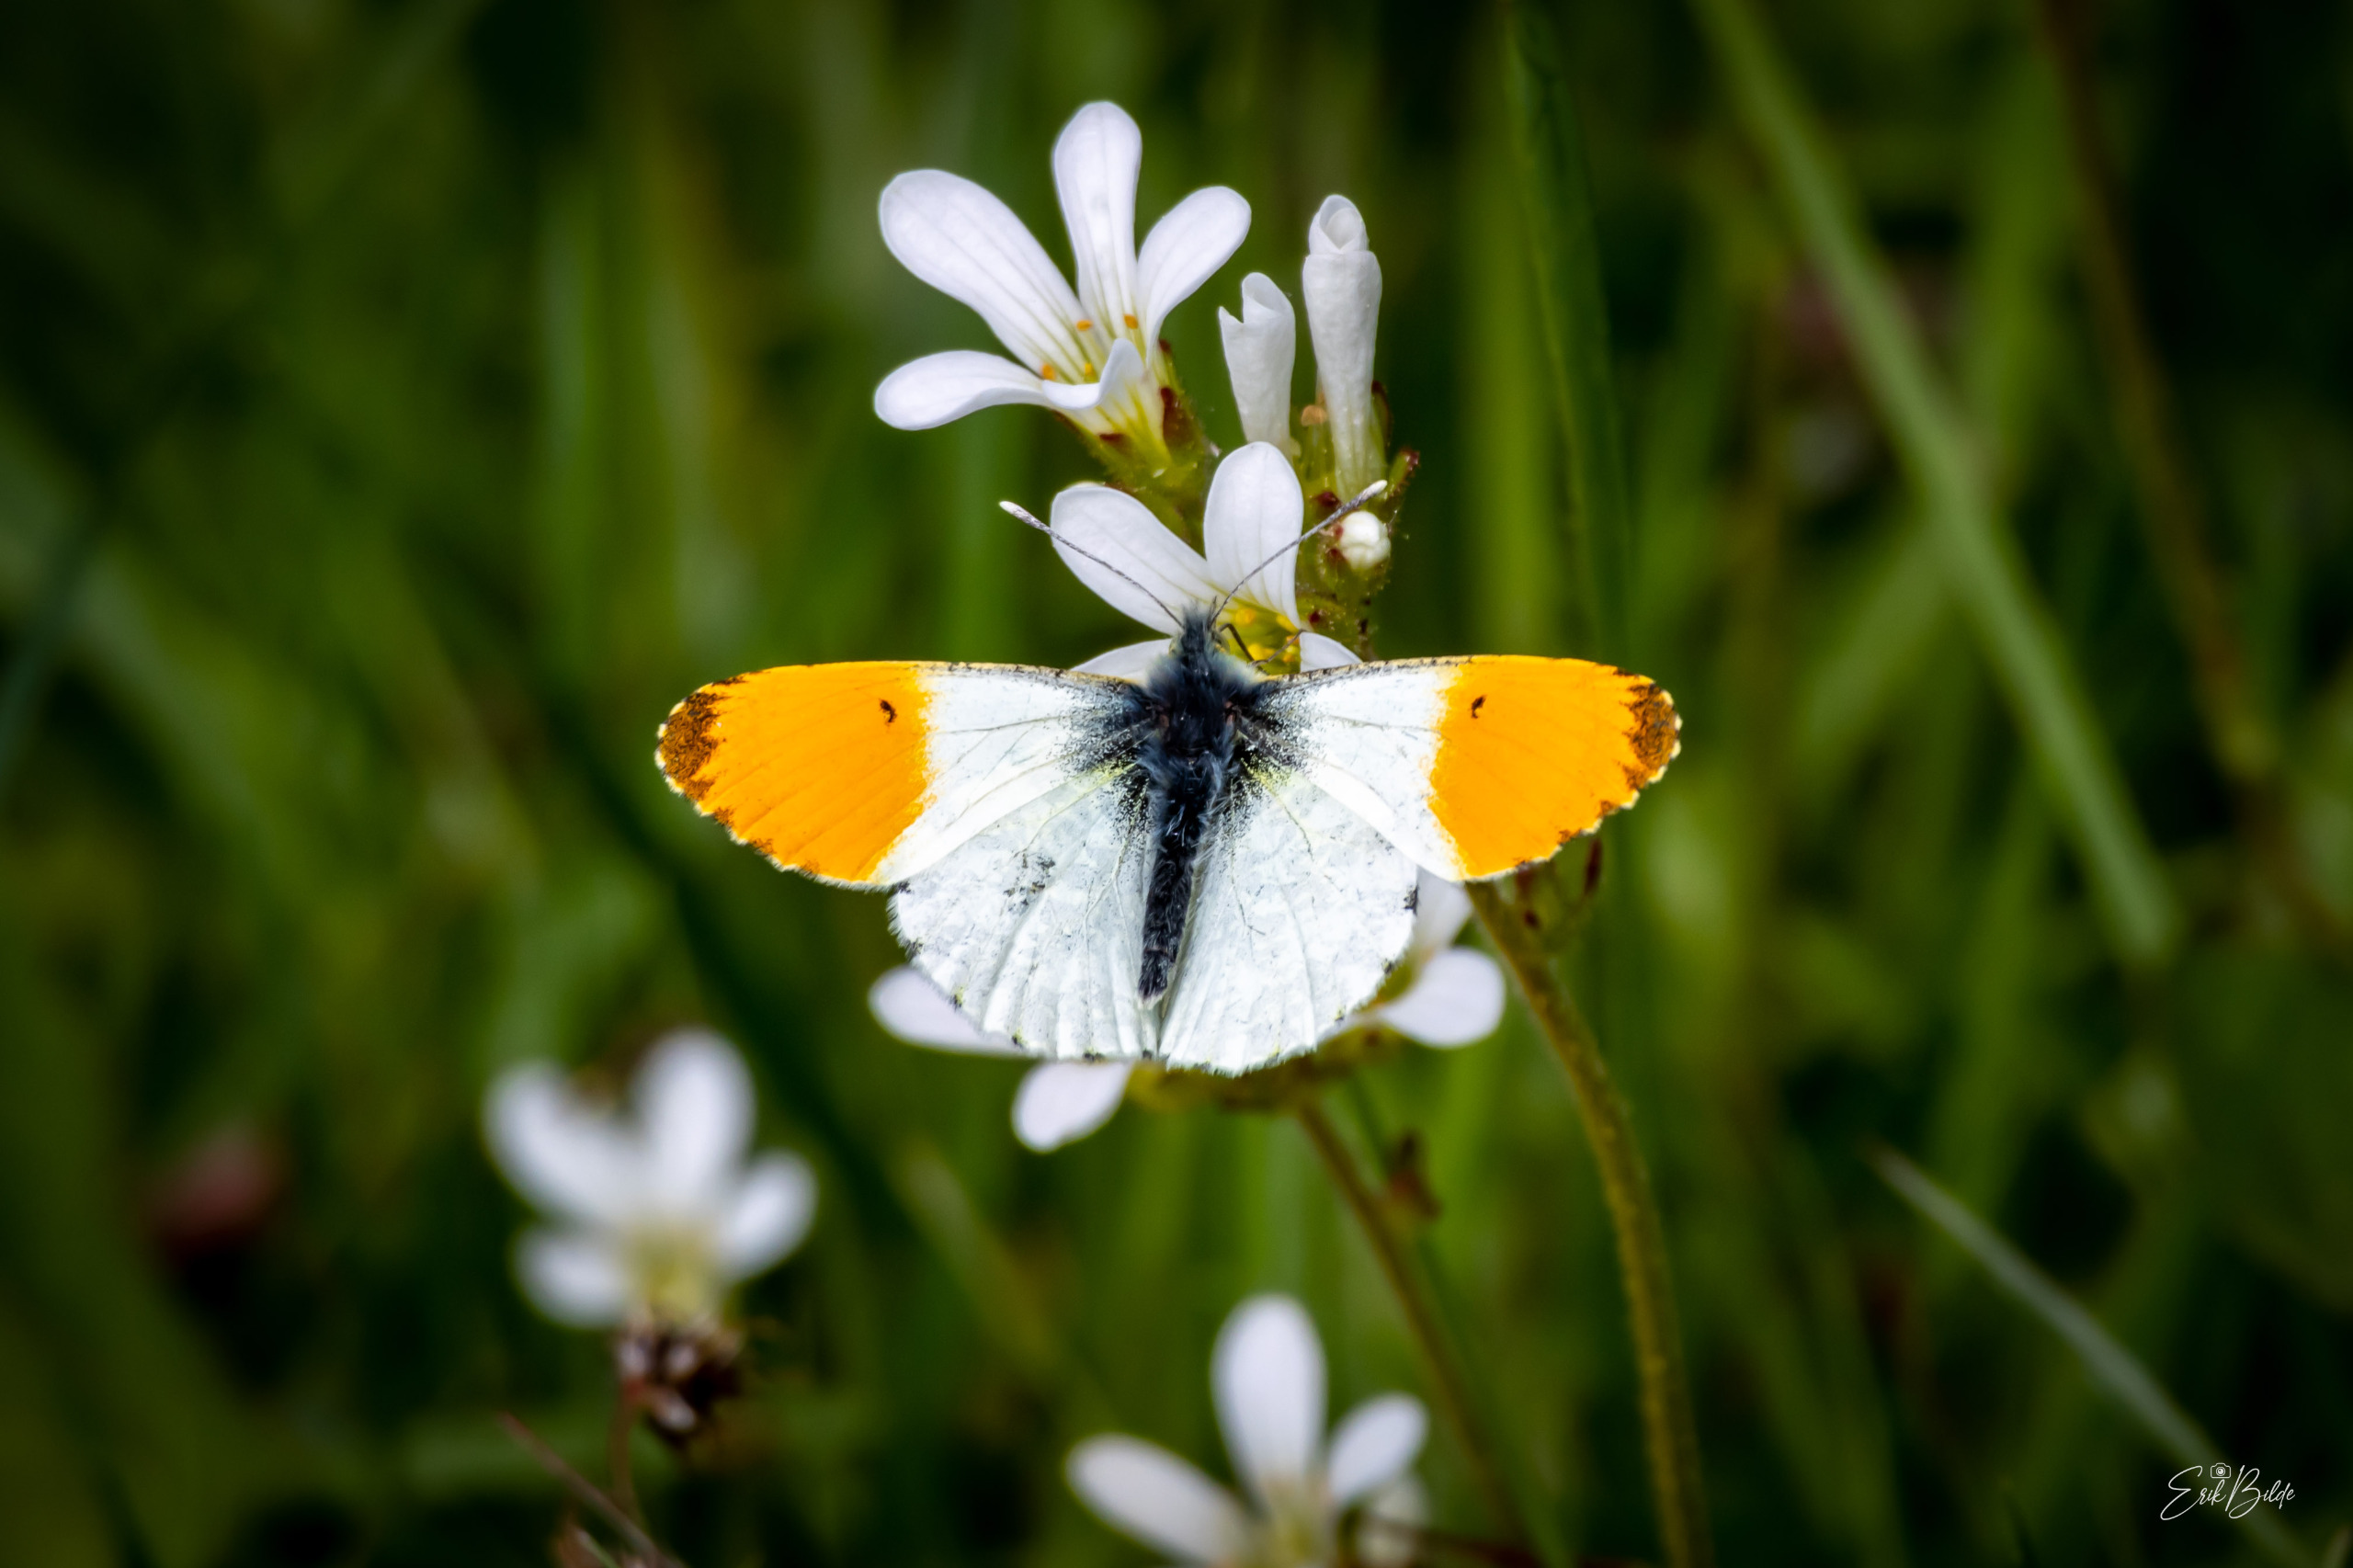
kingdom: Animalia
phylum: Arthropoda
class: Insecta
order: Lepidoptera
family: Pieridae
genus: Anthocharis
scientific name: Anthocharis cardamines
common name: Aurora
